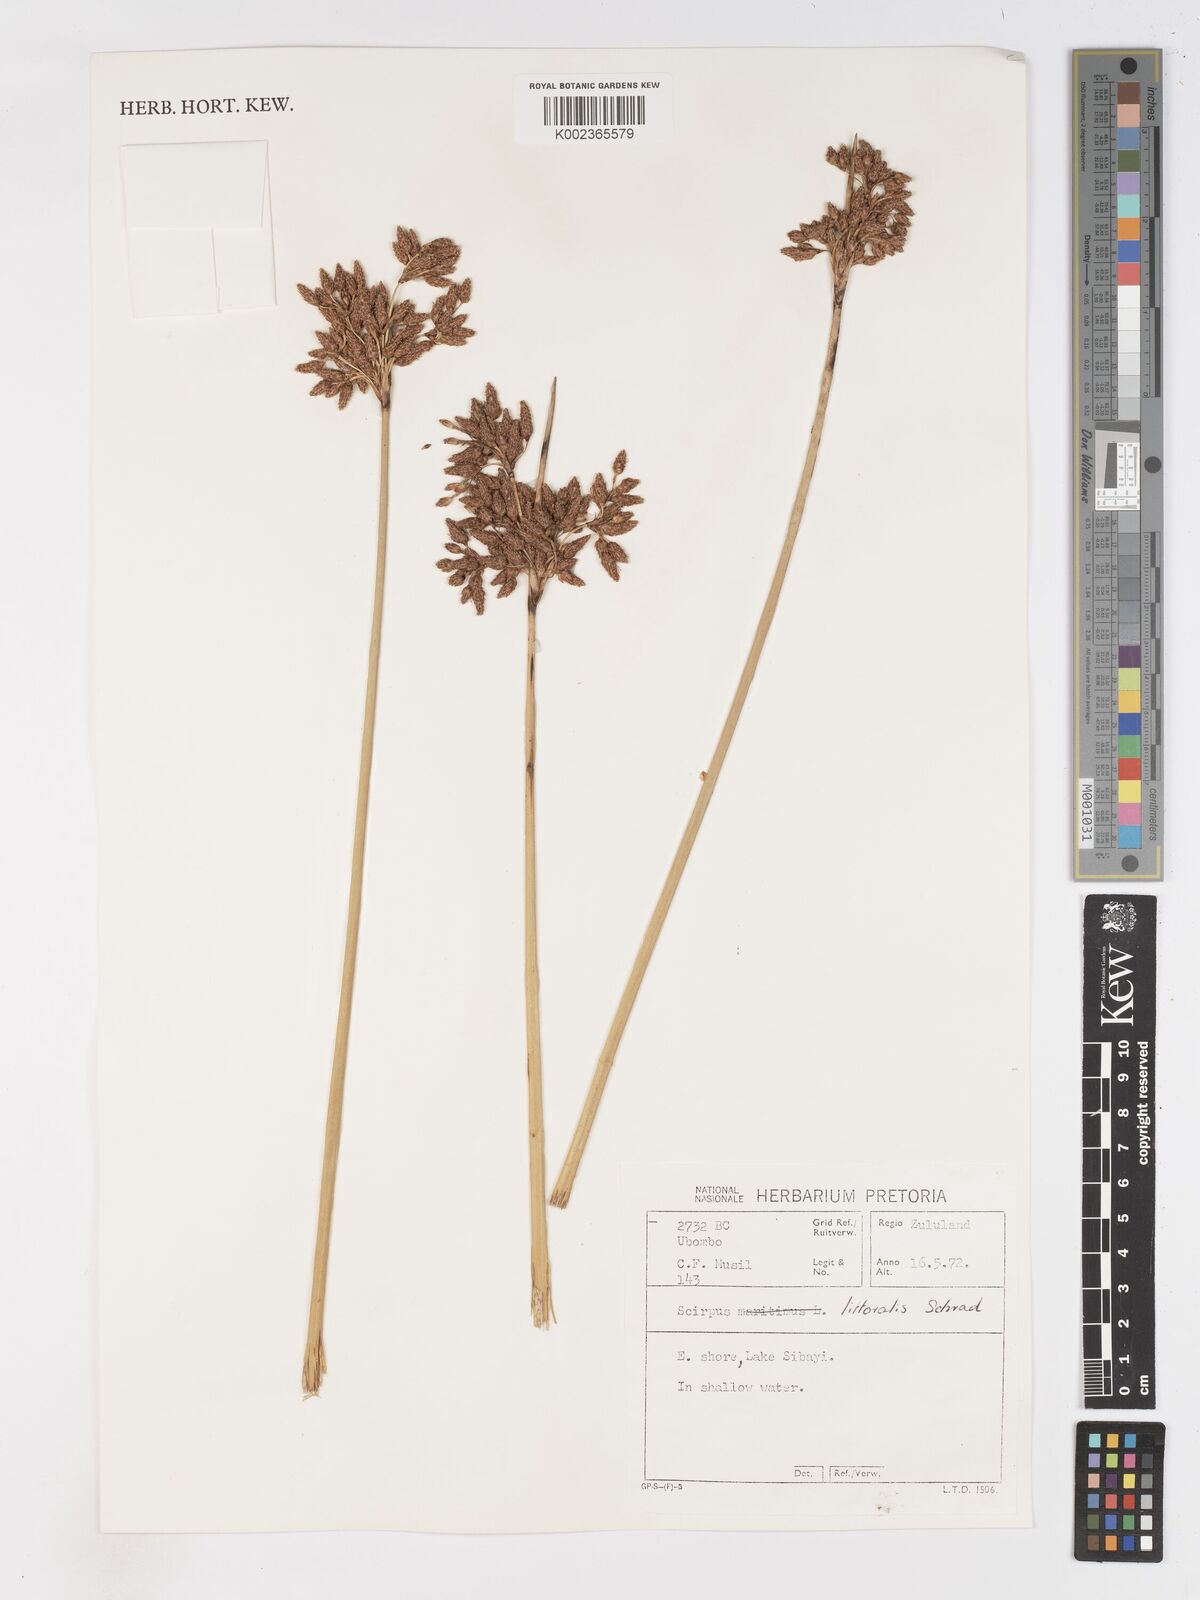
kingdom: Plantae
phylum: Tracheophyta
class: Liliopsida
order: Poales
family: Cyperaceae
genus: Schoenoplectus
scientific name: Schoenoplectus litoralis
